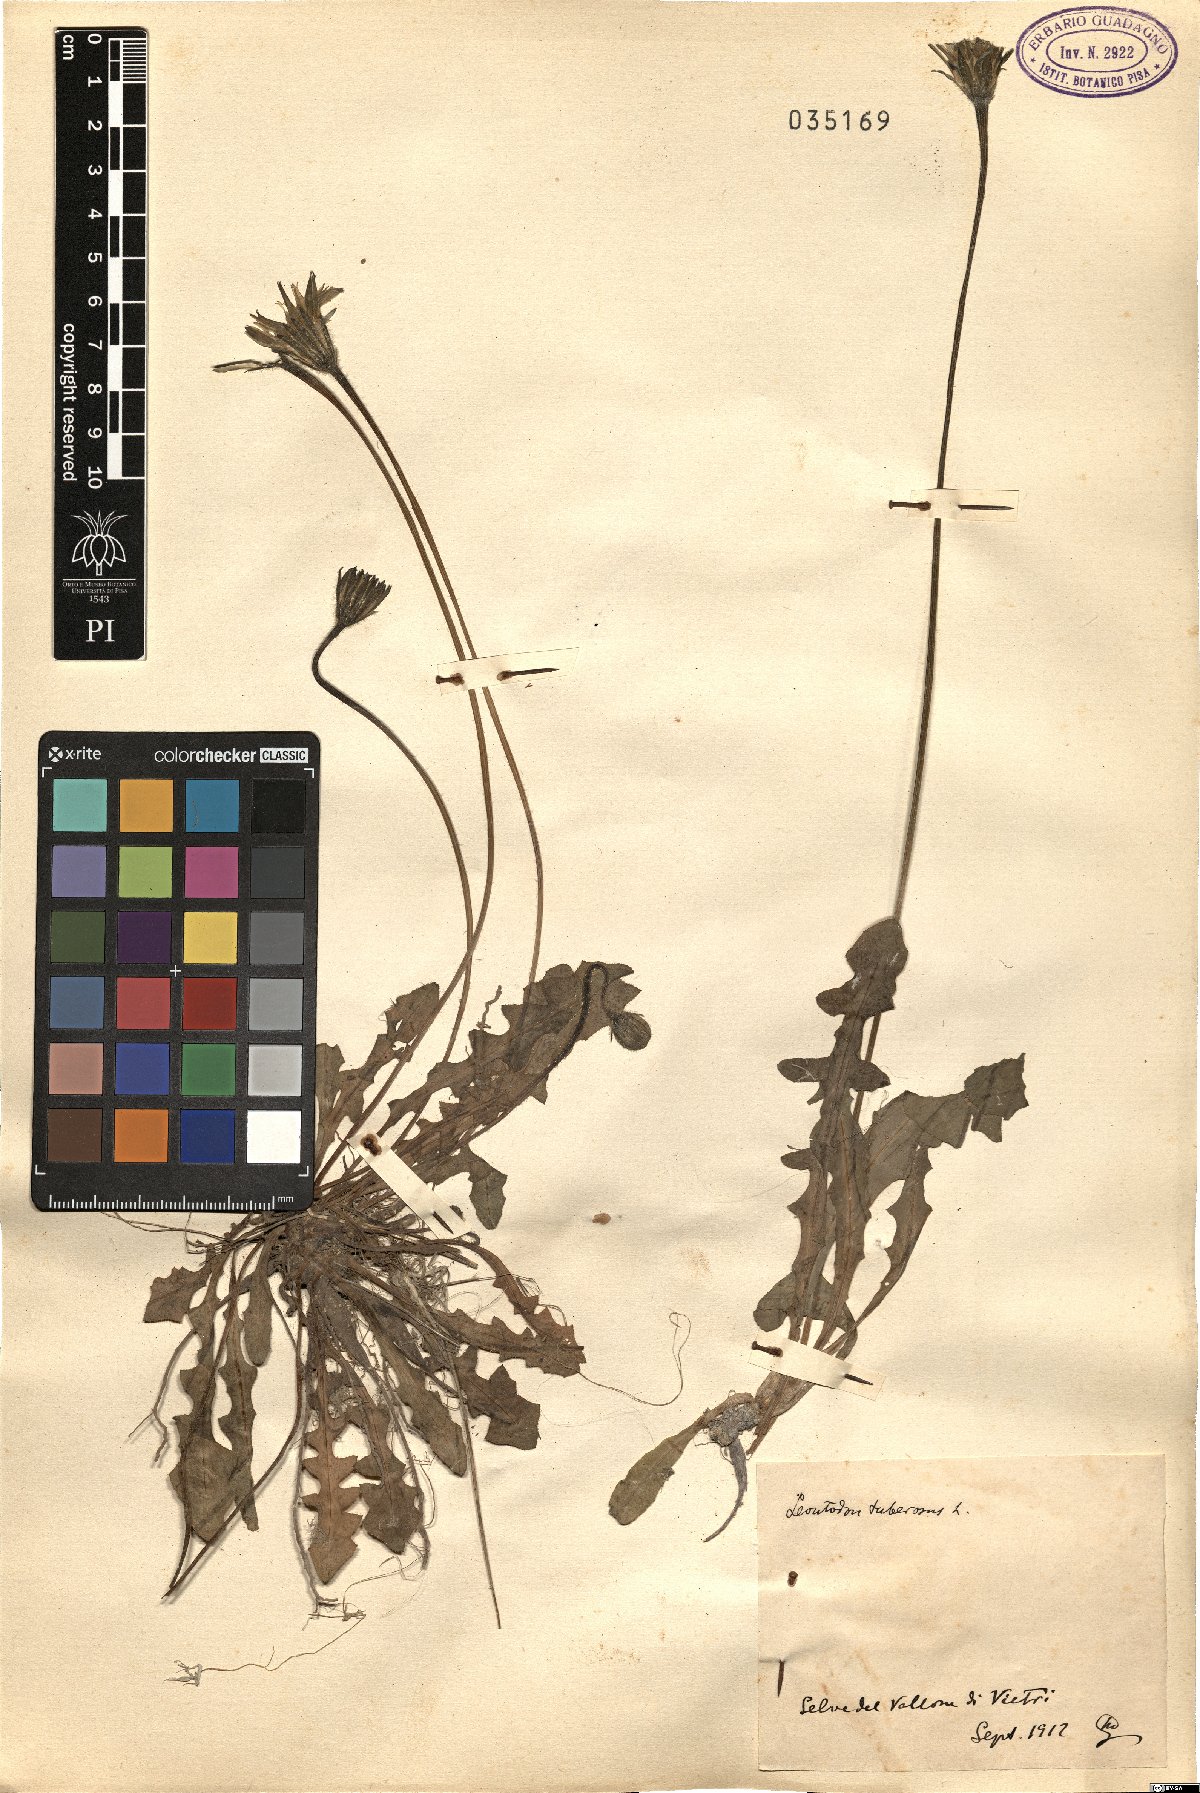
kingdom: Plantae
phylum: Tracheophyta
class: Magnoliopsida
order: Asterales
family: Asteraceae
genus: Thrincia
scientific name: Thrincia tuberosa
